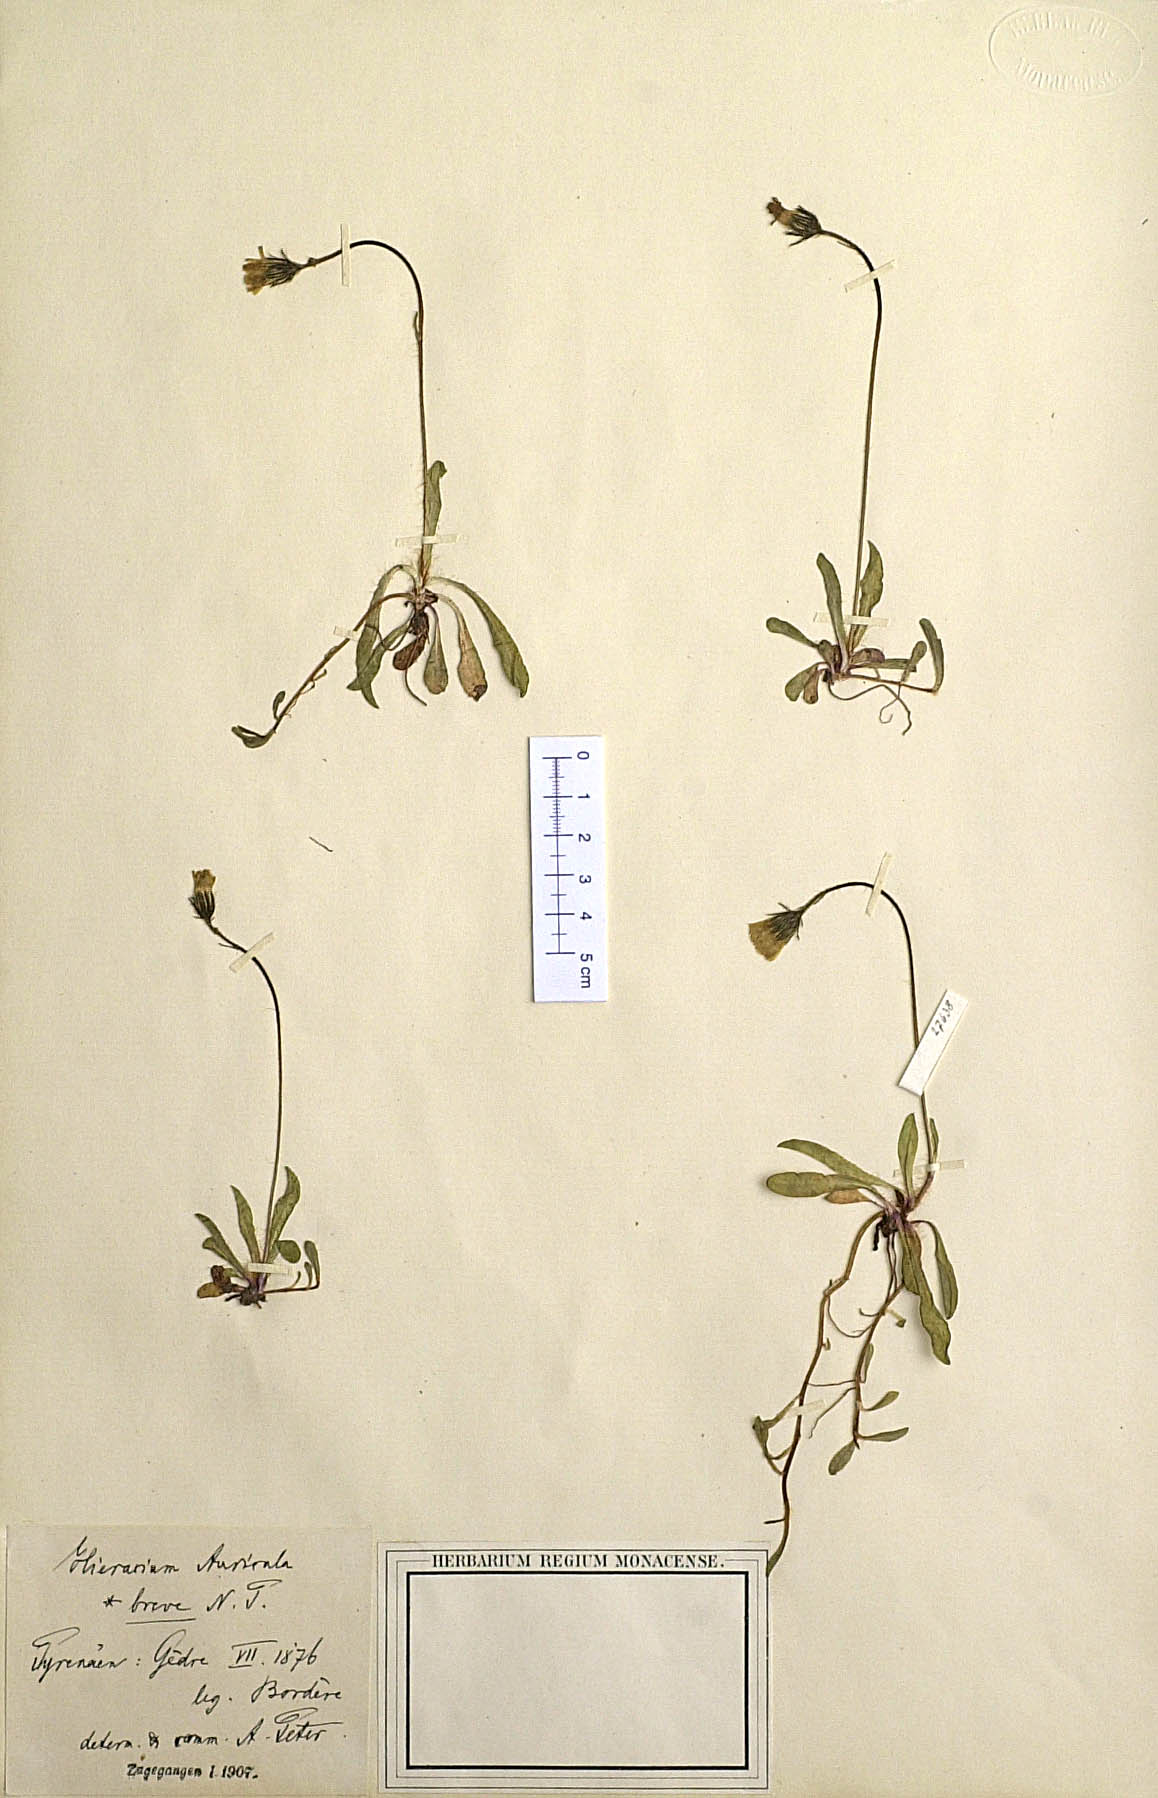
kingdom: Plantae
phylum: Tracheophyta
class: Magnoliopsida
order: Asterales
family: Asteraceae
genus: Pilosella
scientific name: Pilosella lactucella
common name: Glaucous fox-and-cubs
